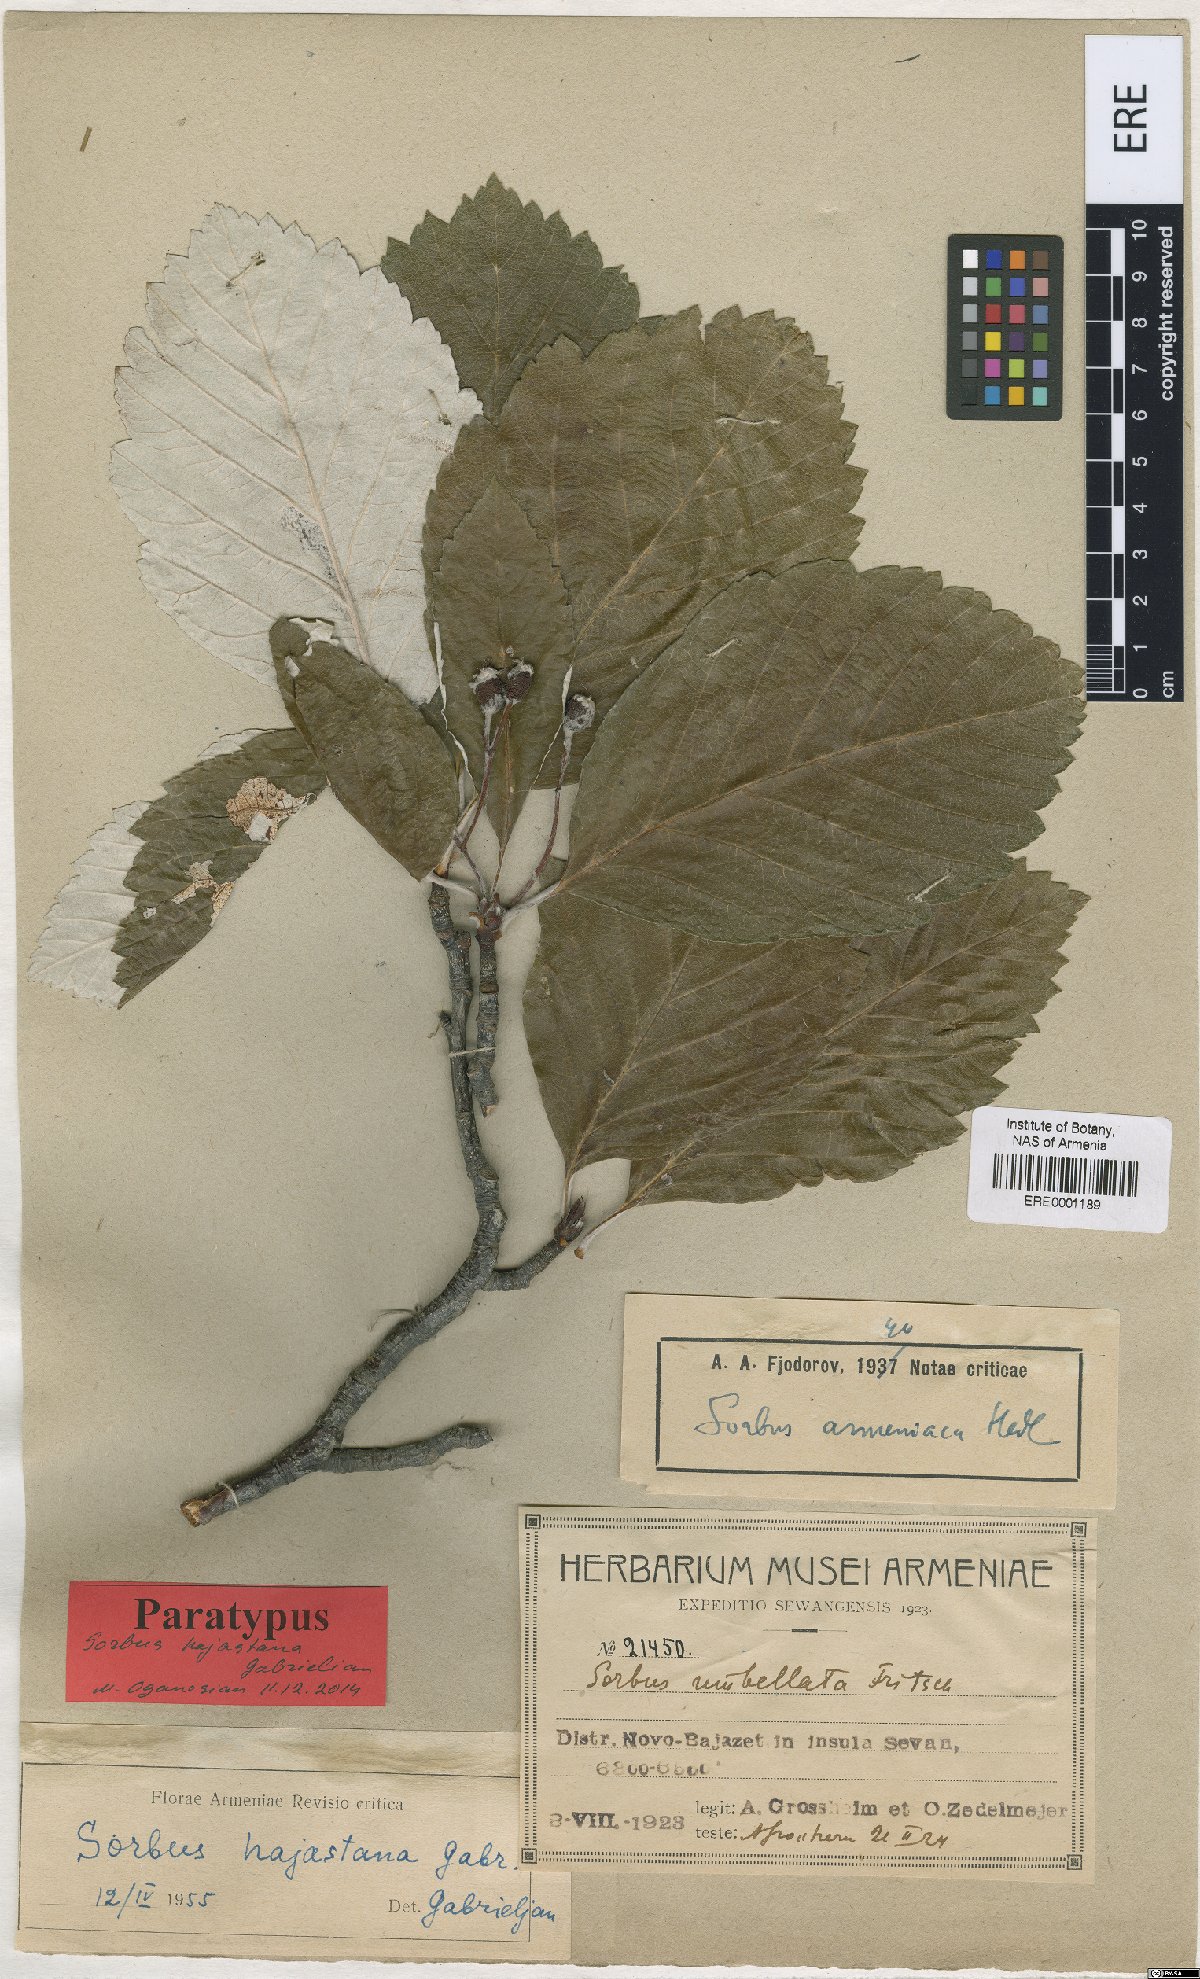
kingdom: Plantae
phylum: Tracheophyta
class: Magnoliopsida
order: Rosales
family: Rosaceae
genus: Sorbus
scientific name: Sorbus hajastana
